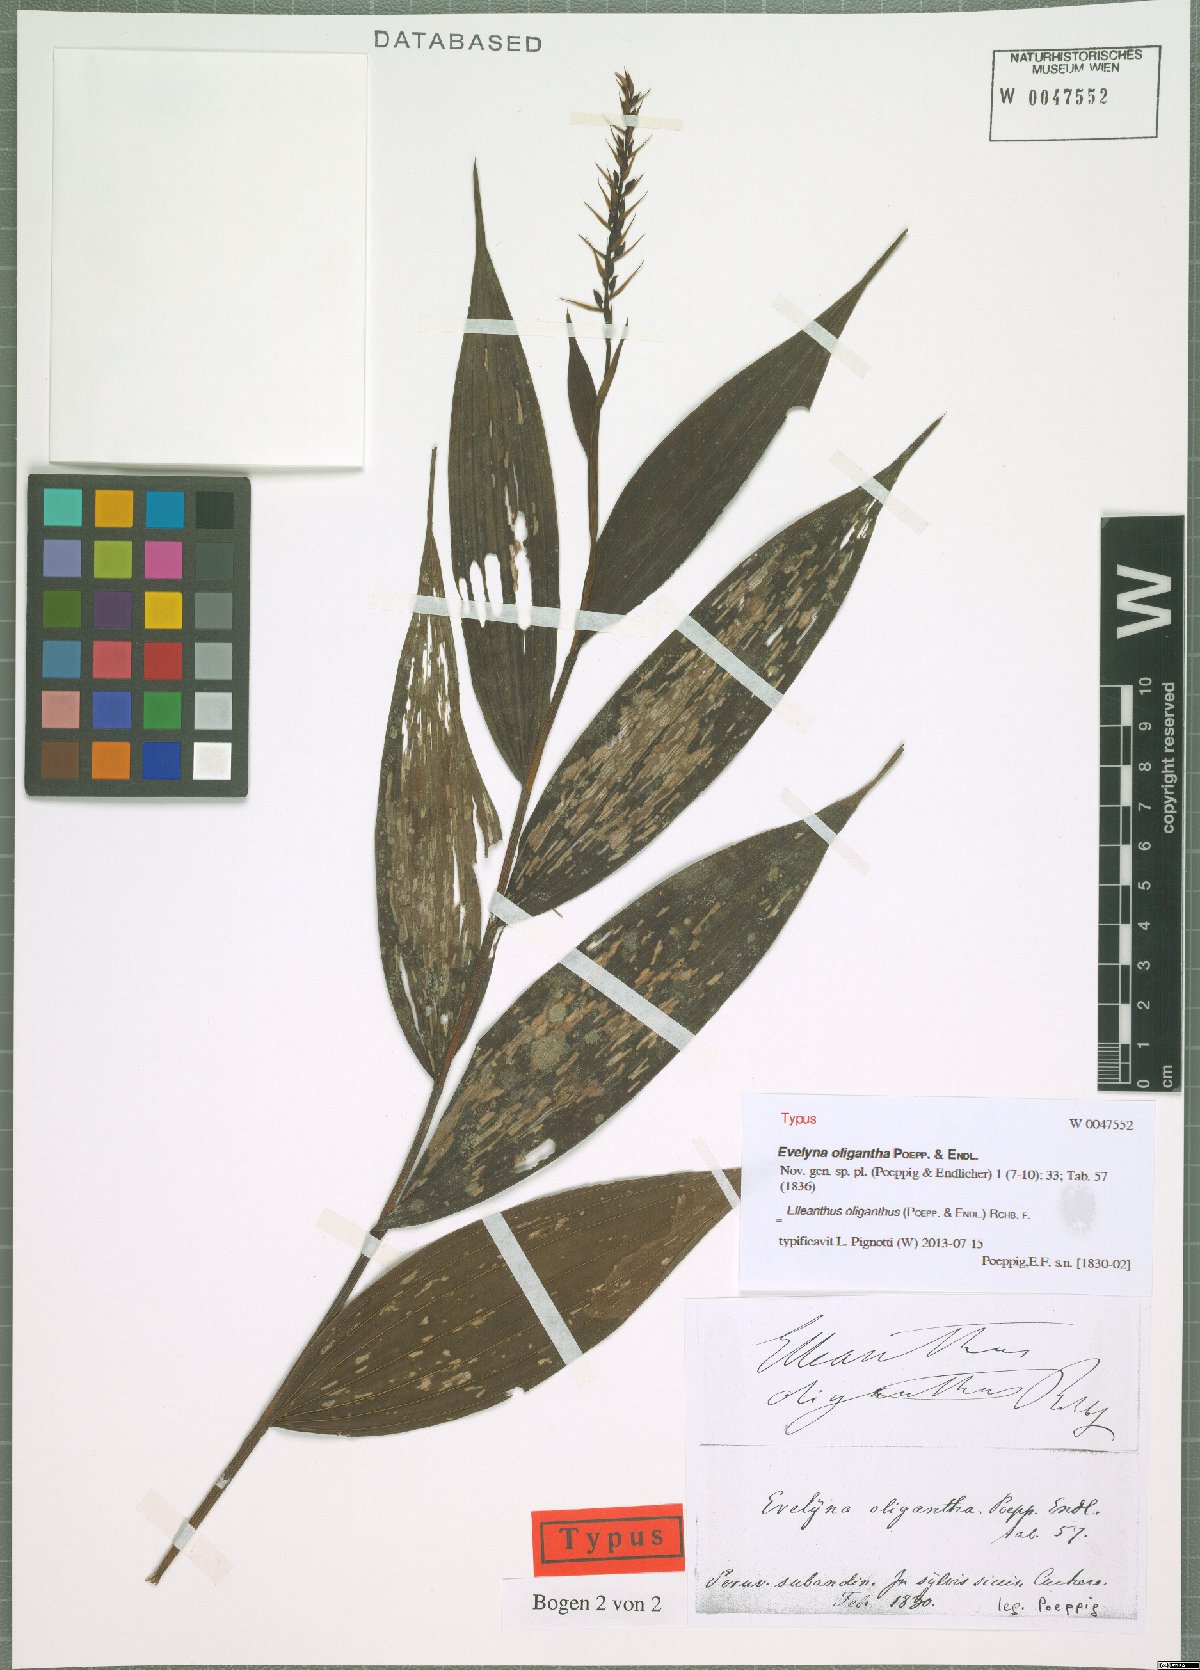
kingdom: Plantae
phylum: Tracheophyta
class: Liliopsida
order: Asparagales
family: Orchidaceae
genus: Elleanthus
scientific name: Elleanthus oliganthus
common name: Sparse blooming elleanthus
